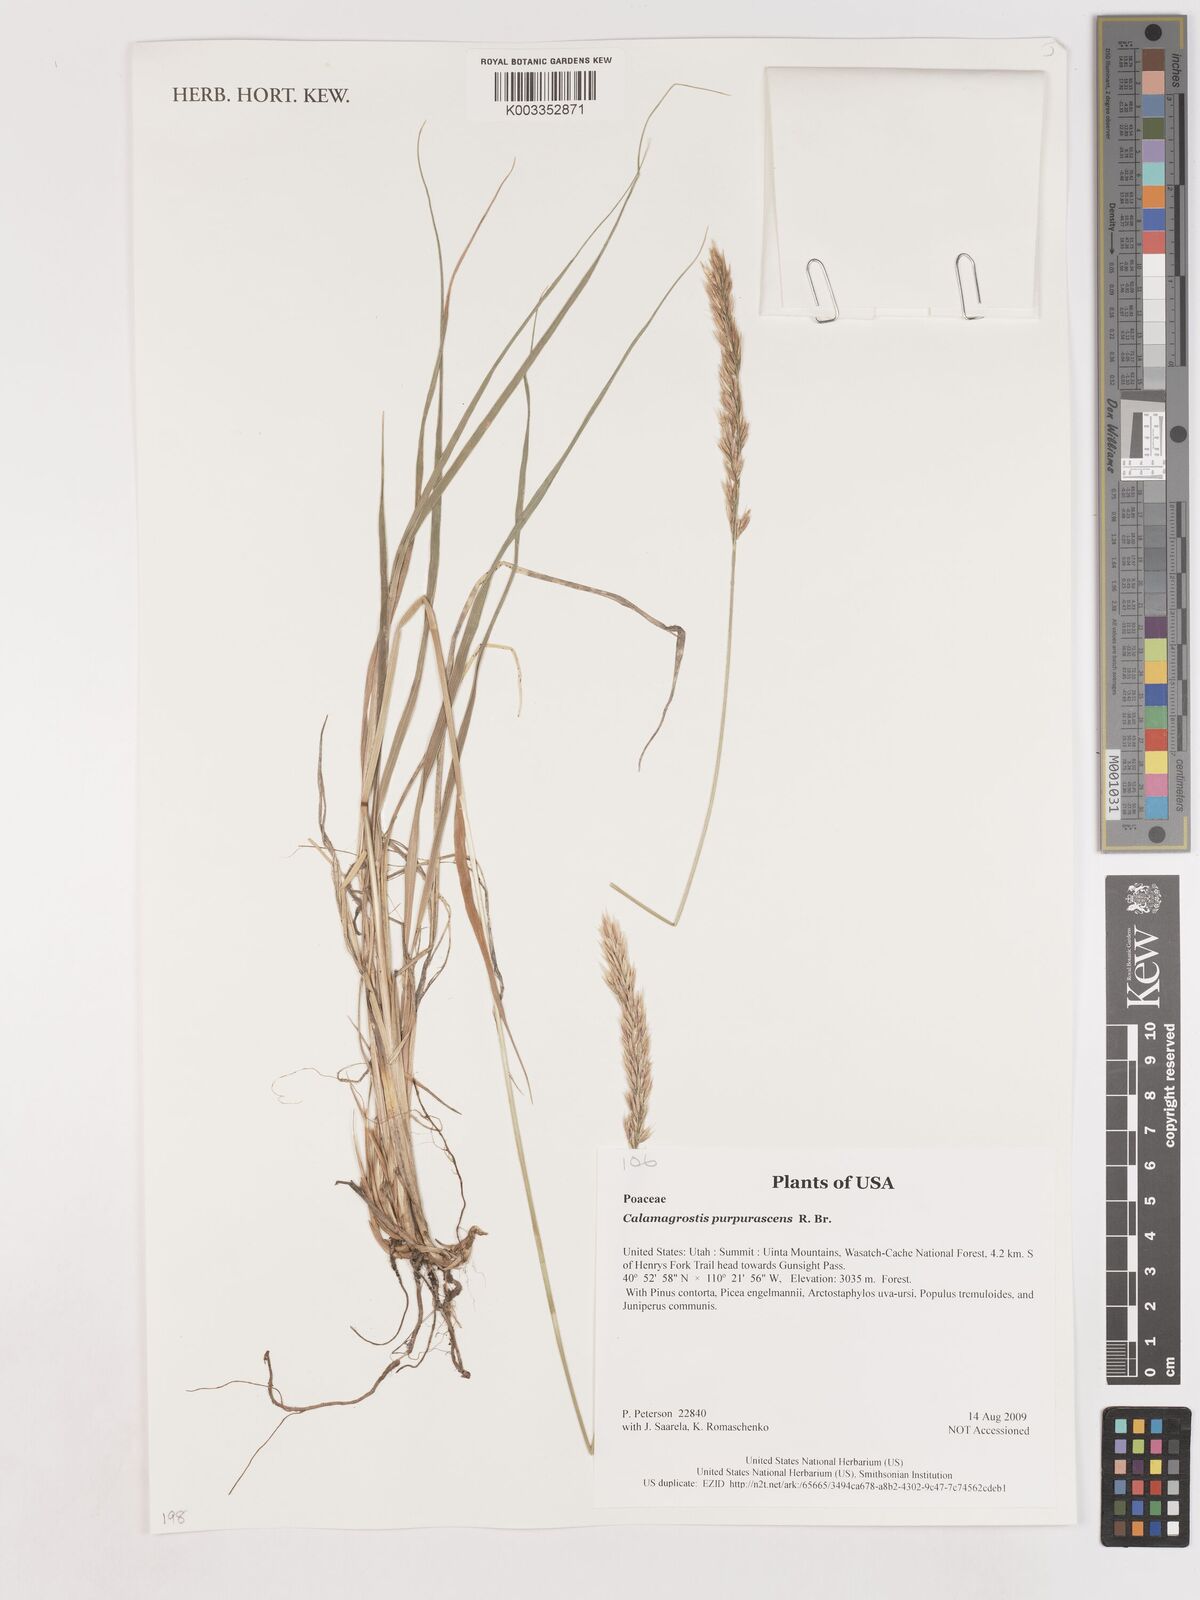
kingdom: Plantae
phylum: Tracheophyta
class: Liliopsida
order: Poales
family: Poaceae
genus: Calamagrostis
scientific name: Calamagrostis purpurascens
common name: Purple reedgrass
